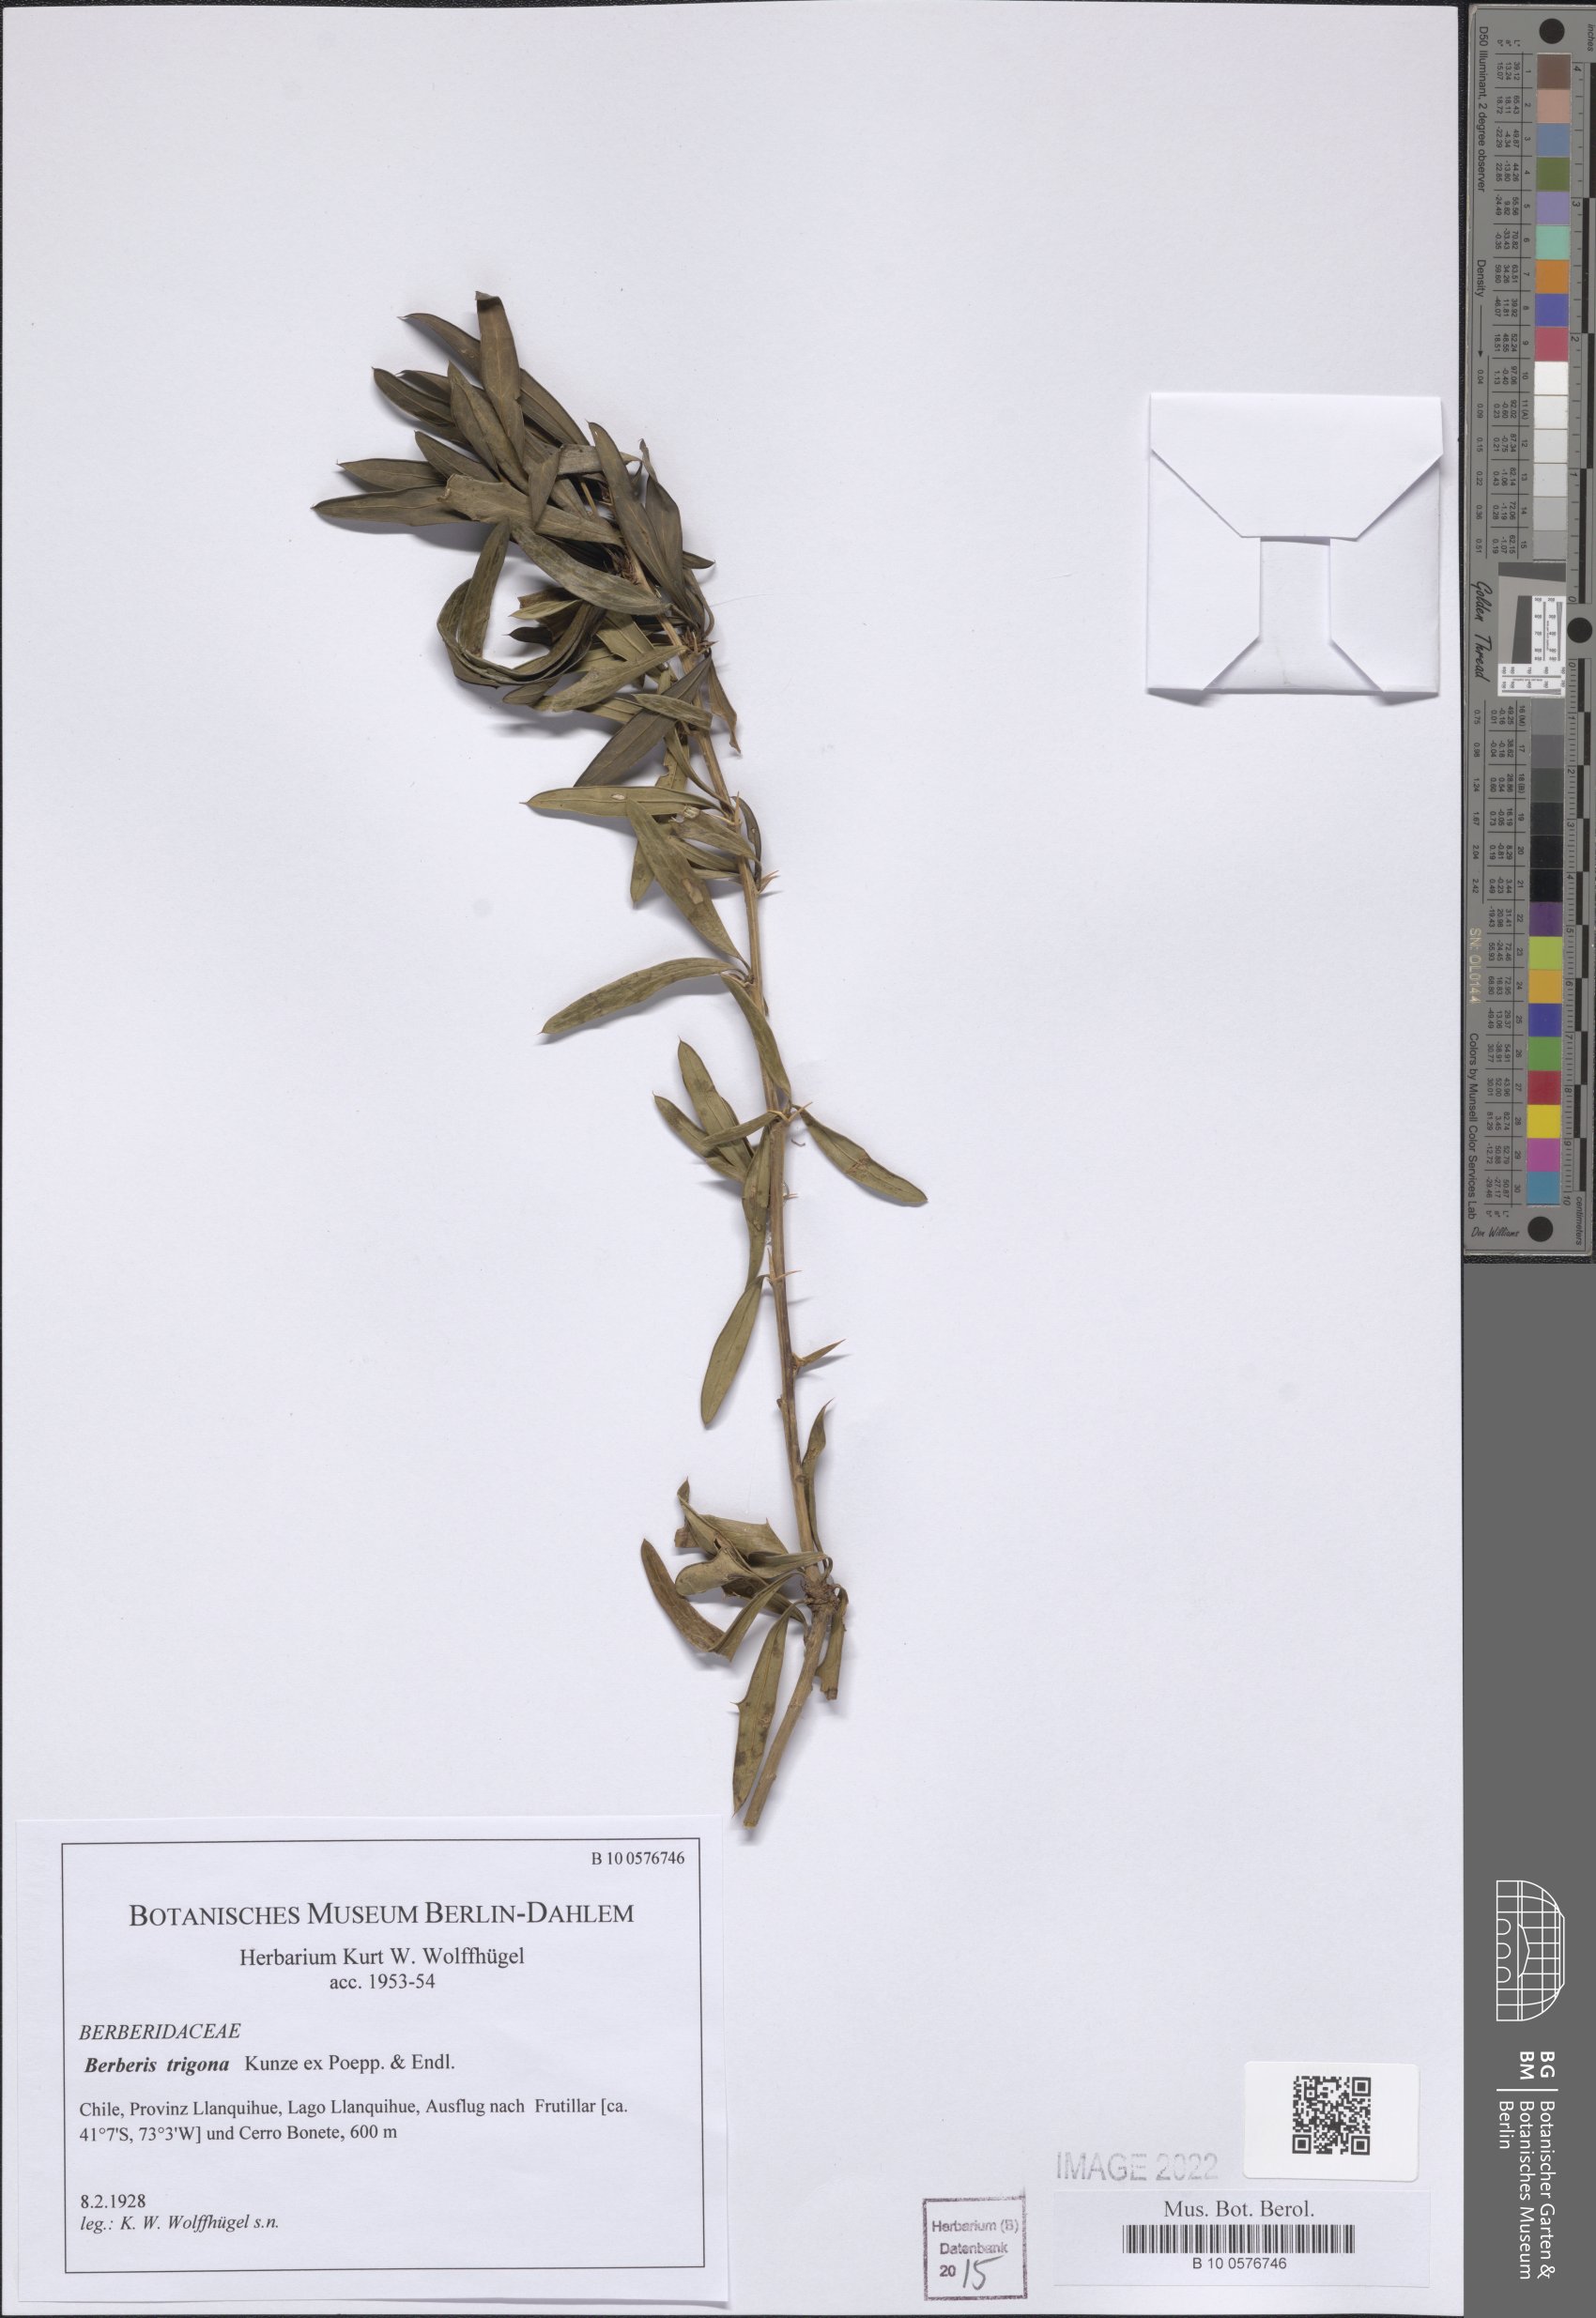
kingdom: Plantae
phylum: Tracheophyta
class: Magnoliopsida
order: Ranunculales
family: Berberidaceae
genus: Berberis
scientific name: Berberis trigona
